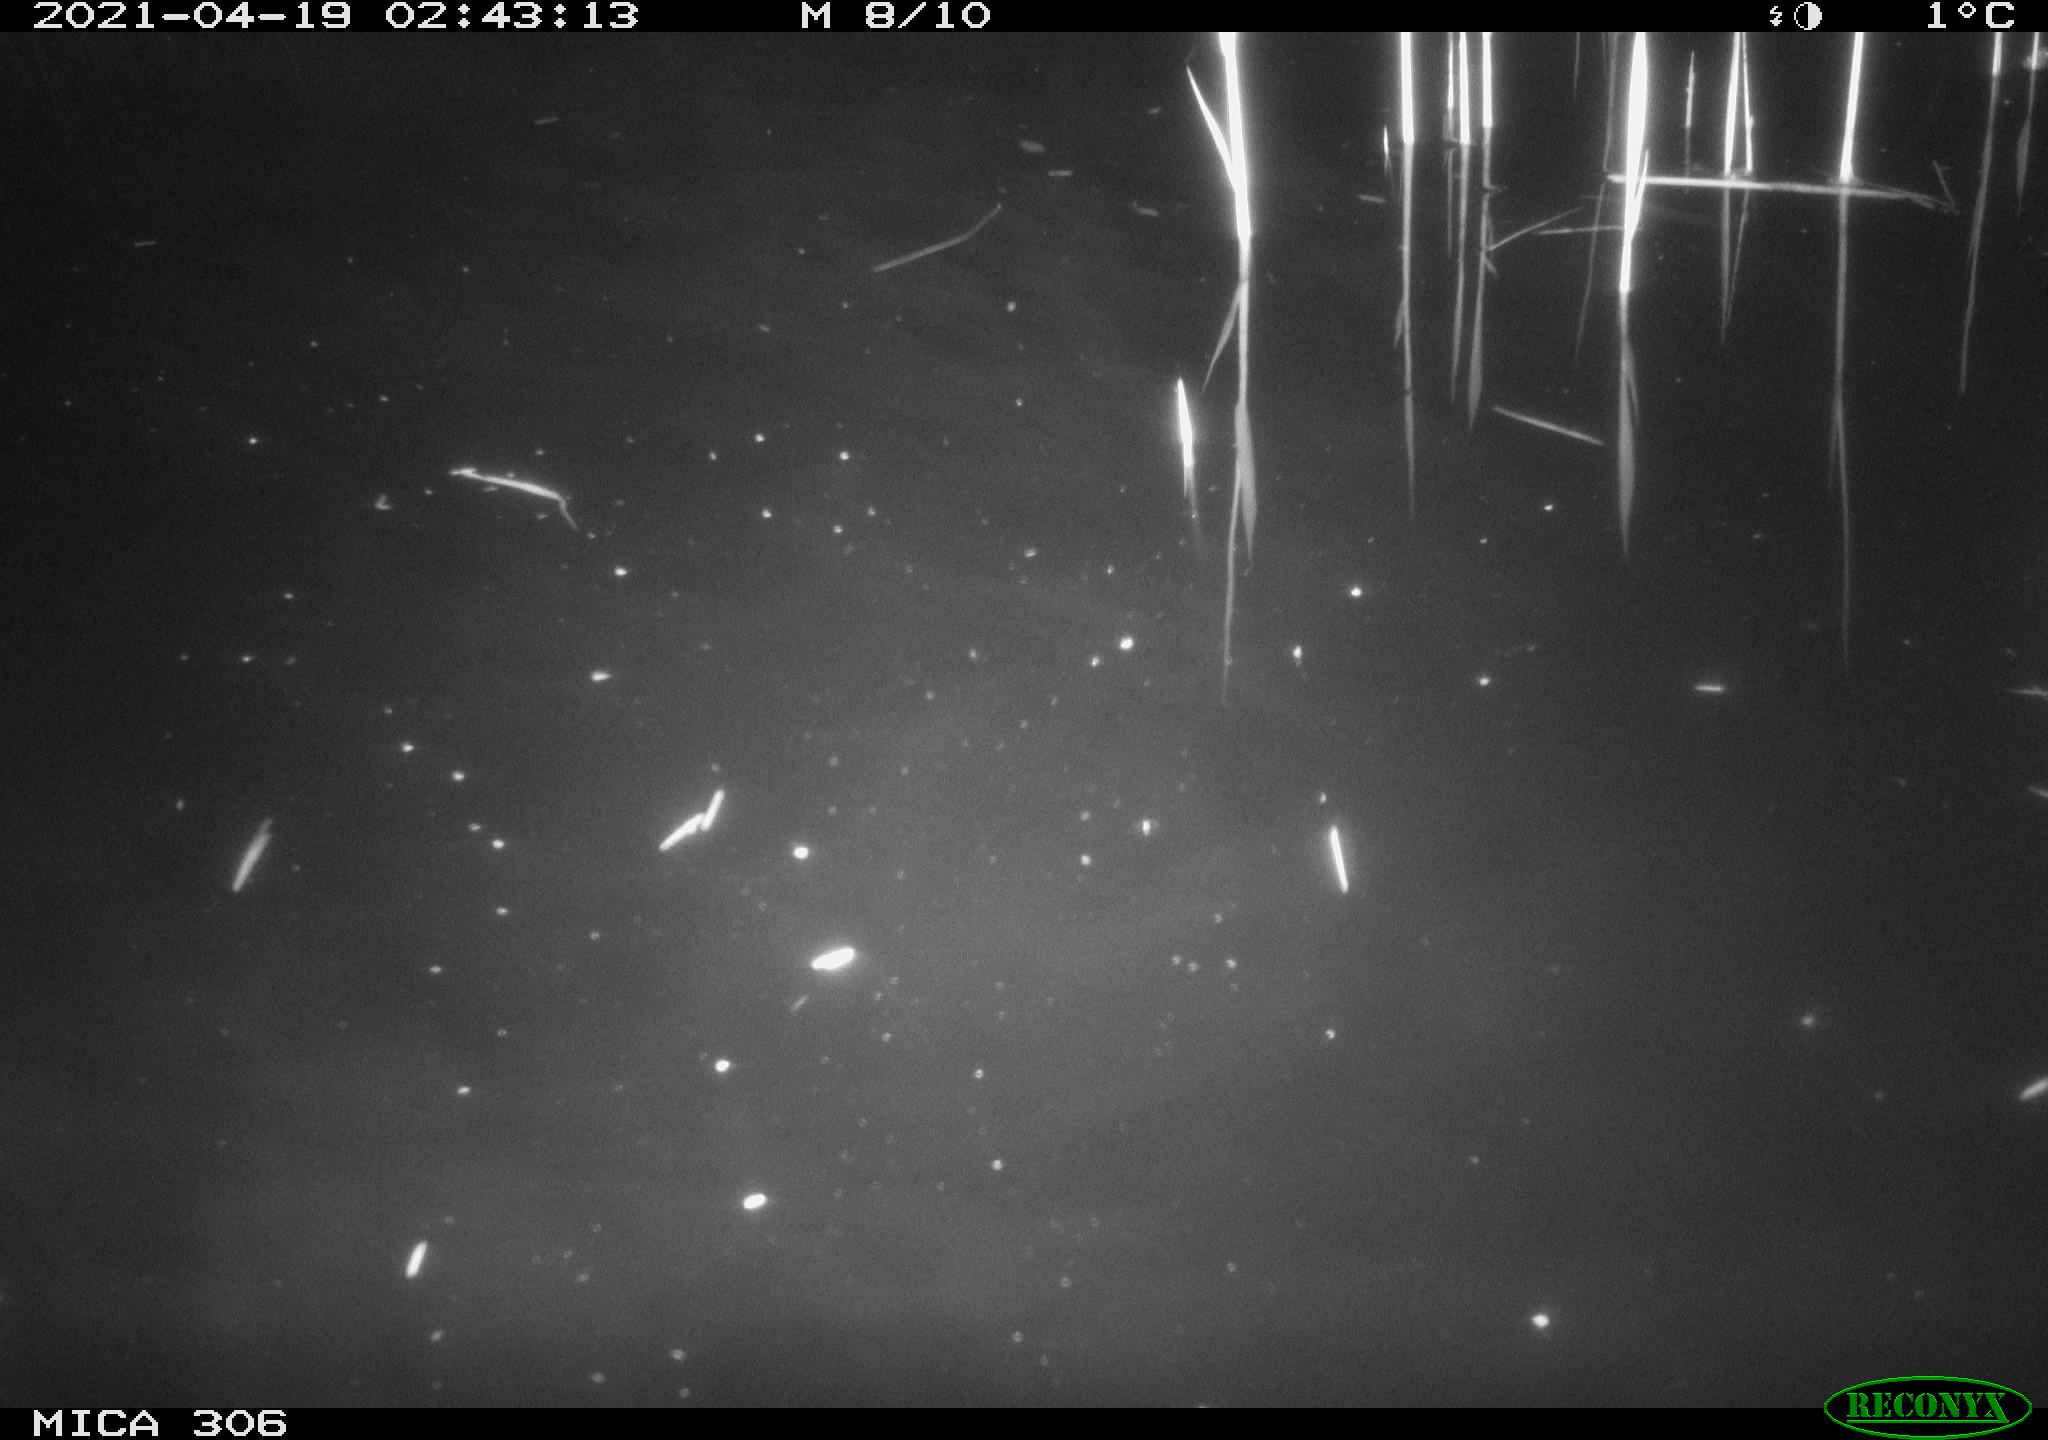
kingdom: Animalia
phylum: Chordata
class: Aves
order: Anseriformes
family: Anatidae
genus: Anas
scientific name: Anas
